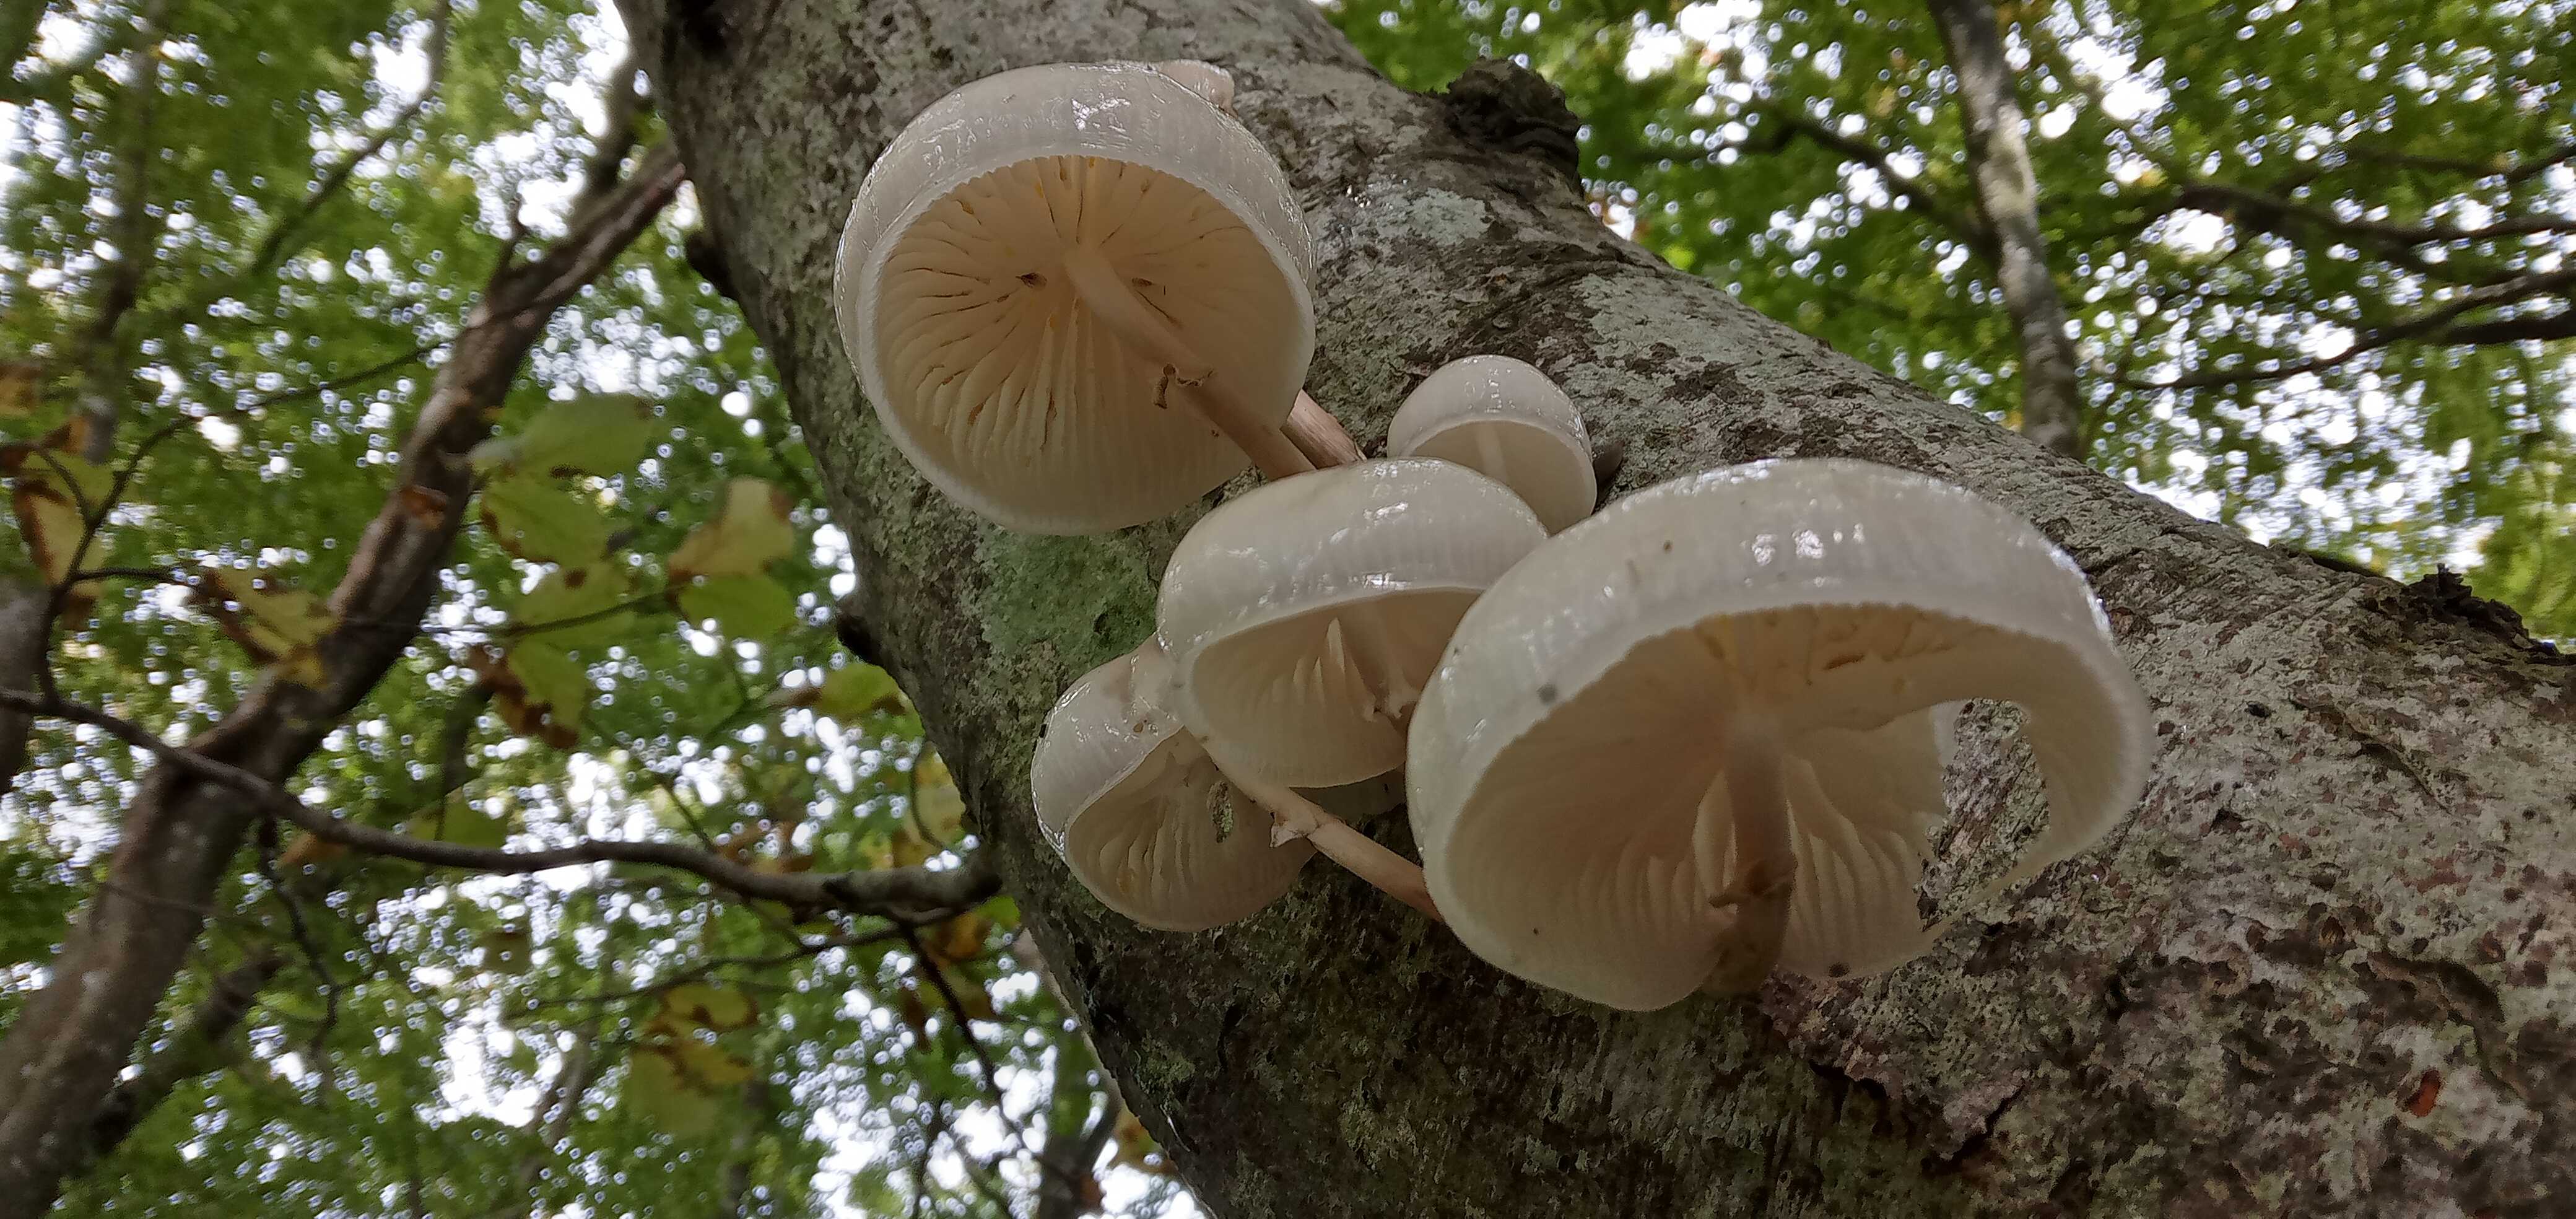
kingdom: Fungi
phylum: Basidiomycota
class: Agaricomycetes
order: Agaricales
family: Physalacriaceae
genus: Mucidula
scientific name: Mucidula mucida
